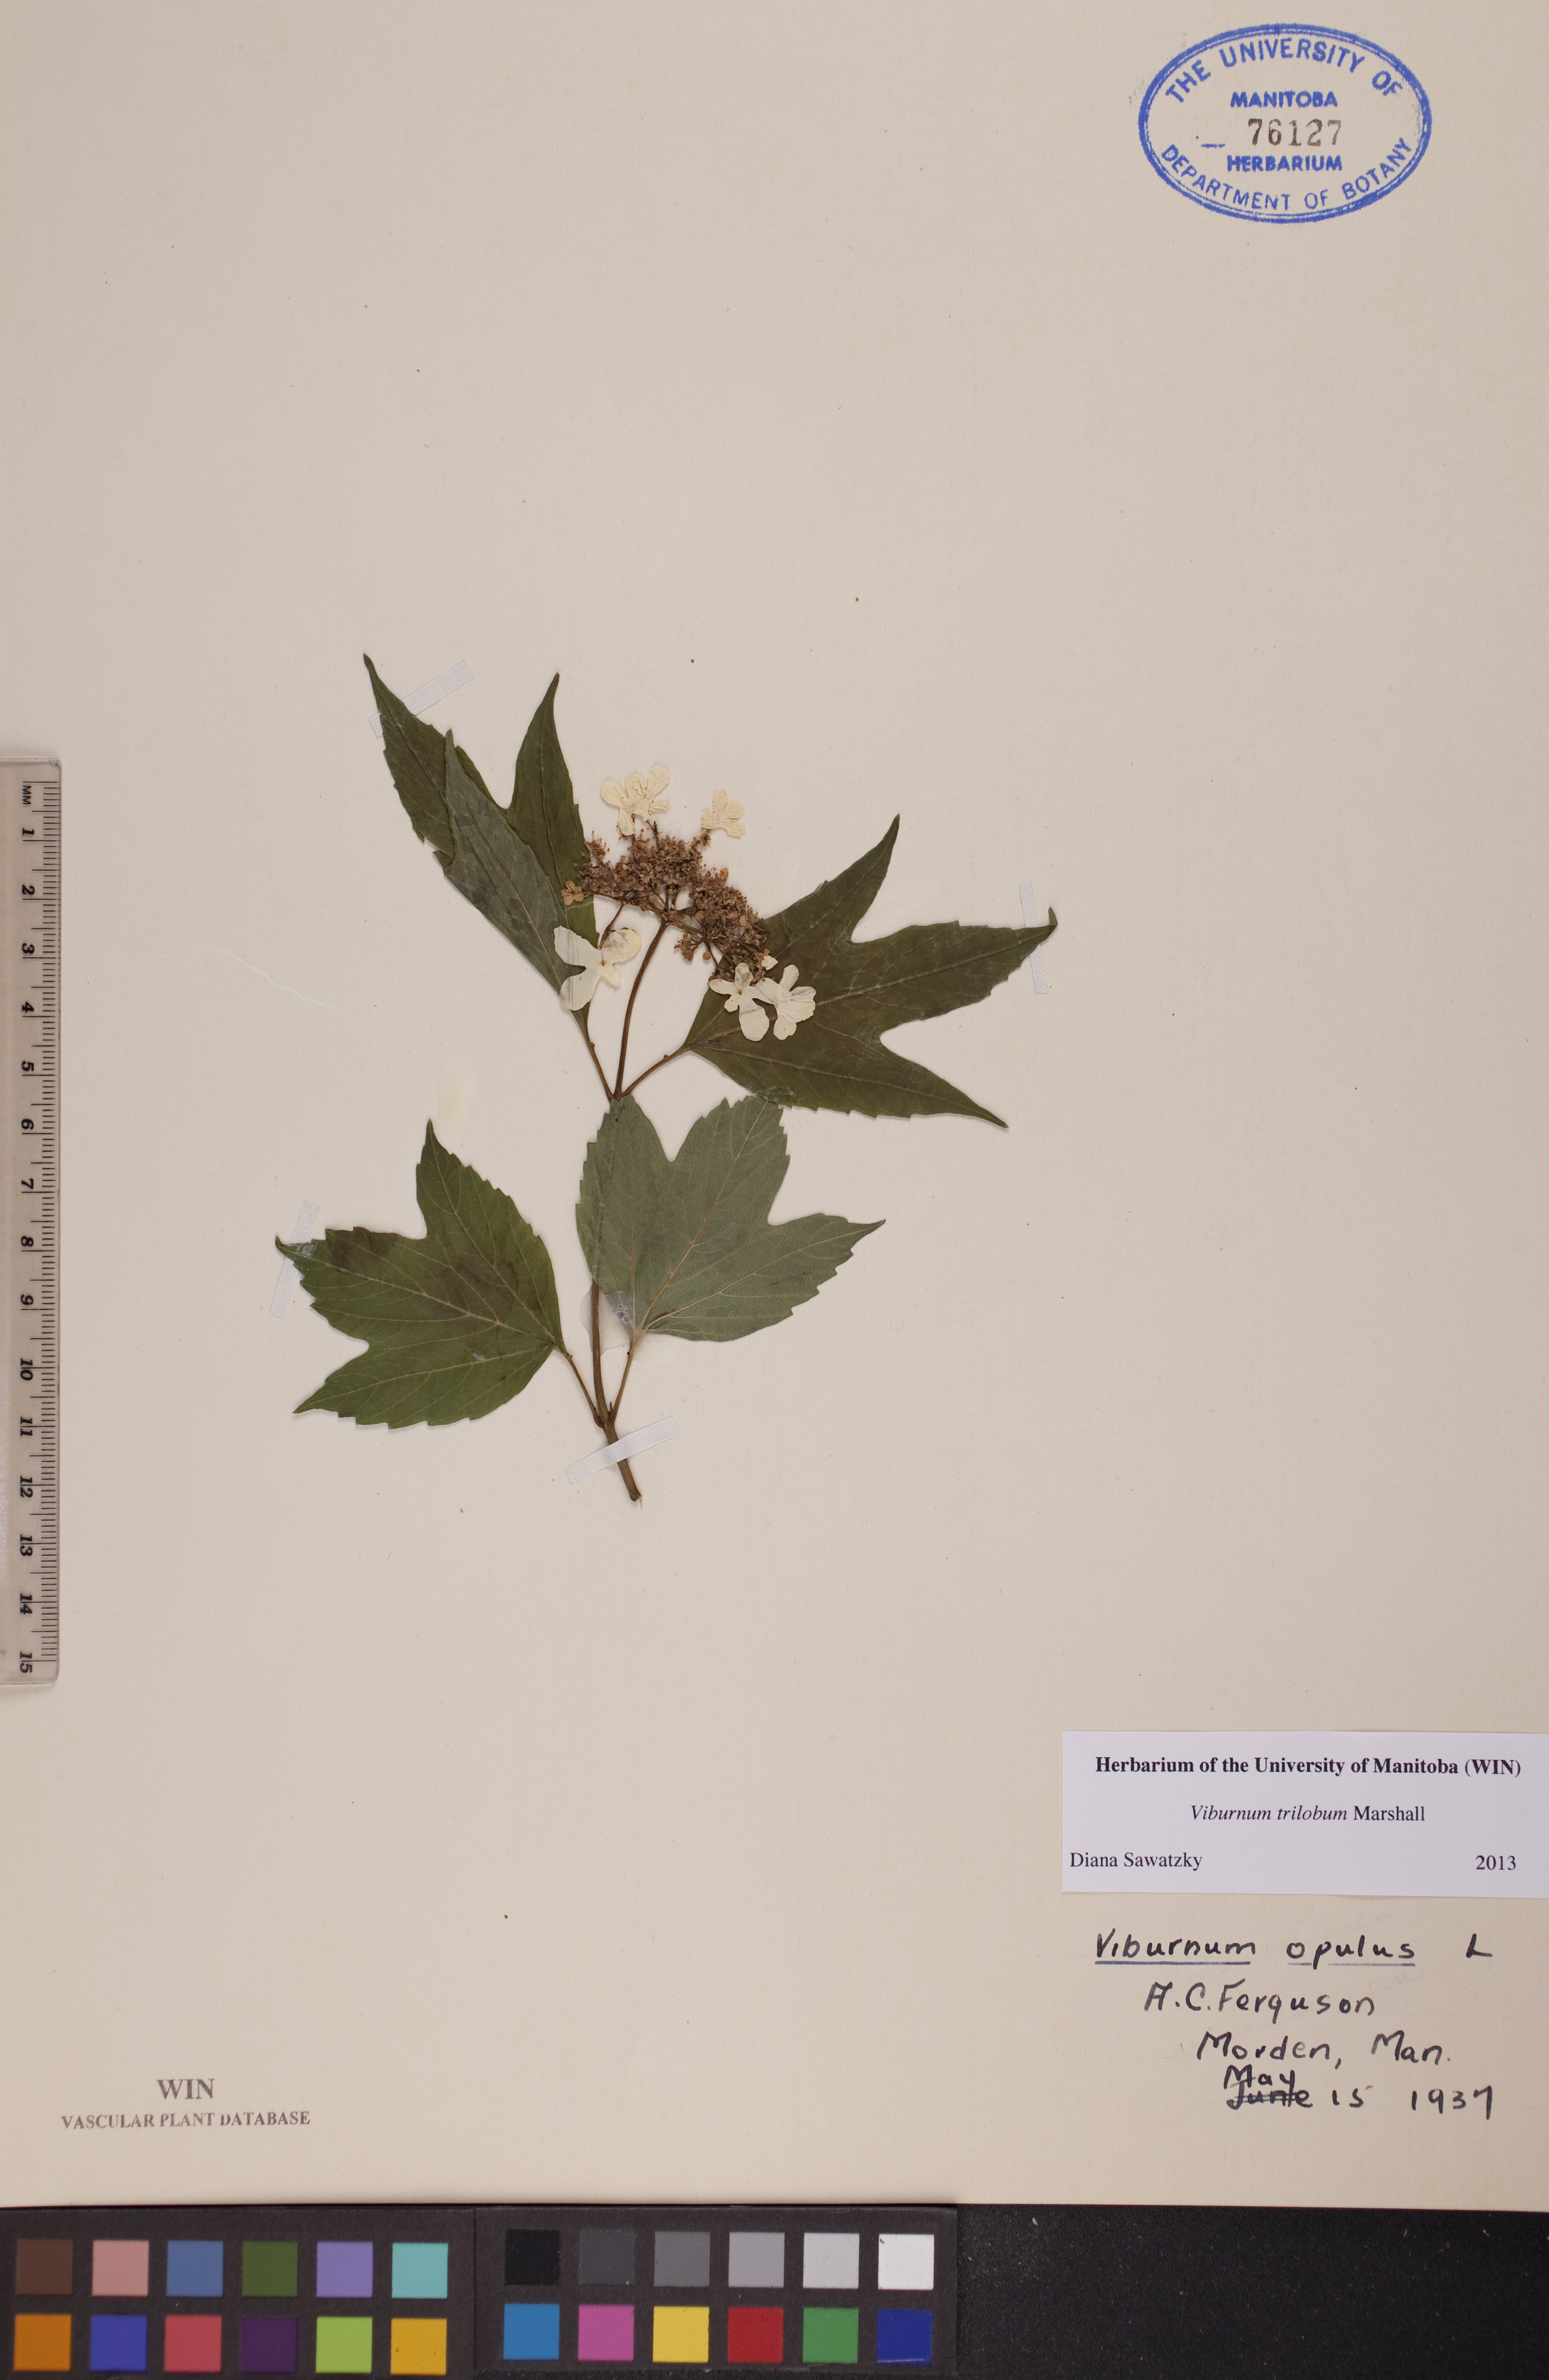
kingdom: Plantae
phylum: Tracheophyta
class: Magnoliopsida
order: Dipsacales
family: Viburnaceae
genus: Viburnum
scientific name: Viburnum trilobum
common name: American cranberrybush
